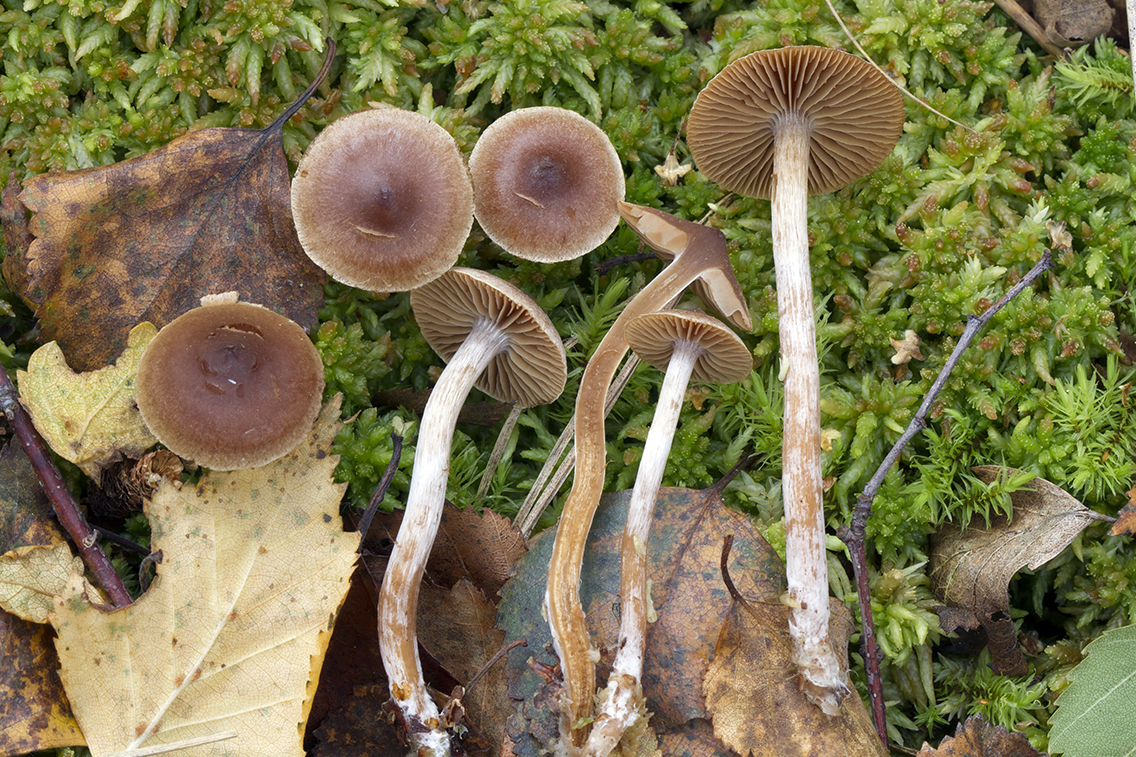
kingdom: Fungi
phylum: Basidiomycota
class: Agaricomycetes
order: Agaricales
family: Cortinariaceae
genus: Cortinarius
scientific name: Cortinarius comptulus
